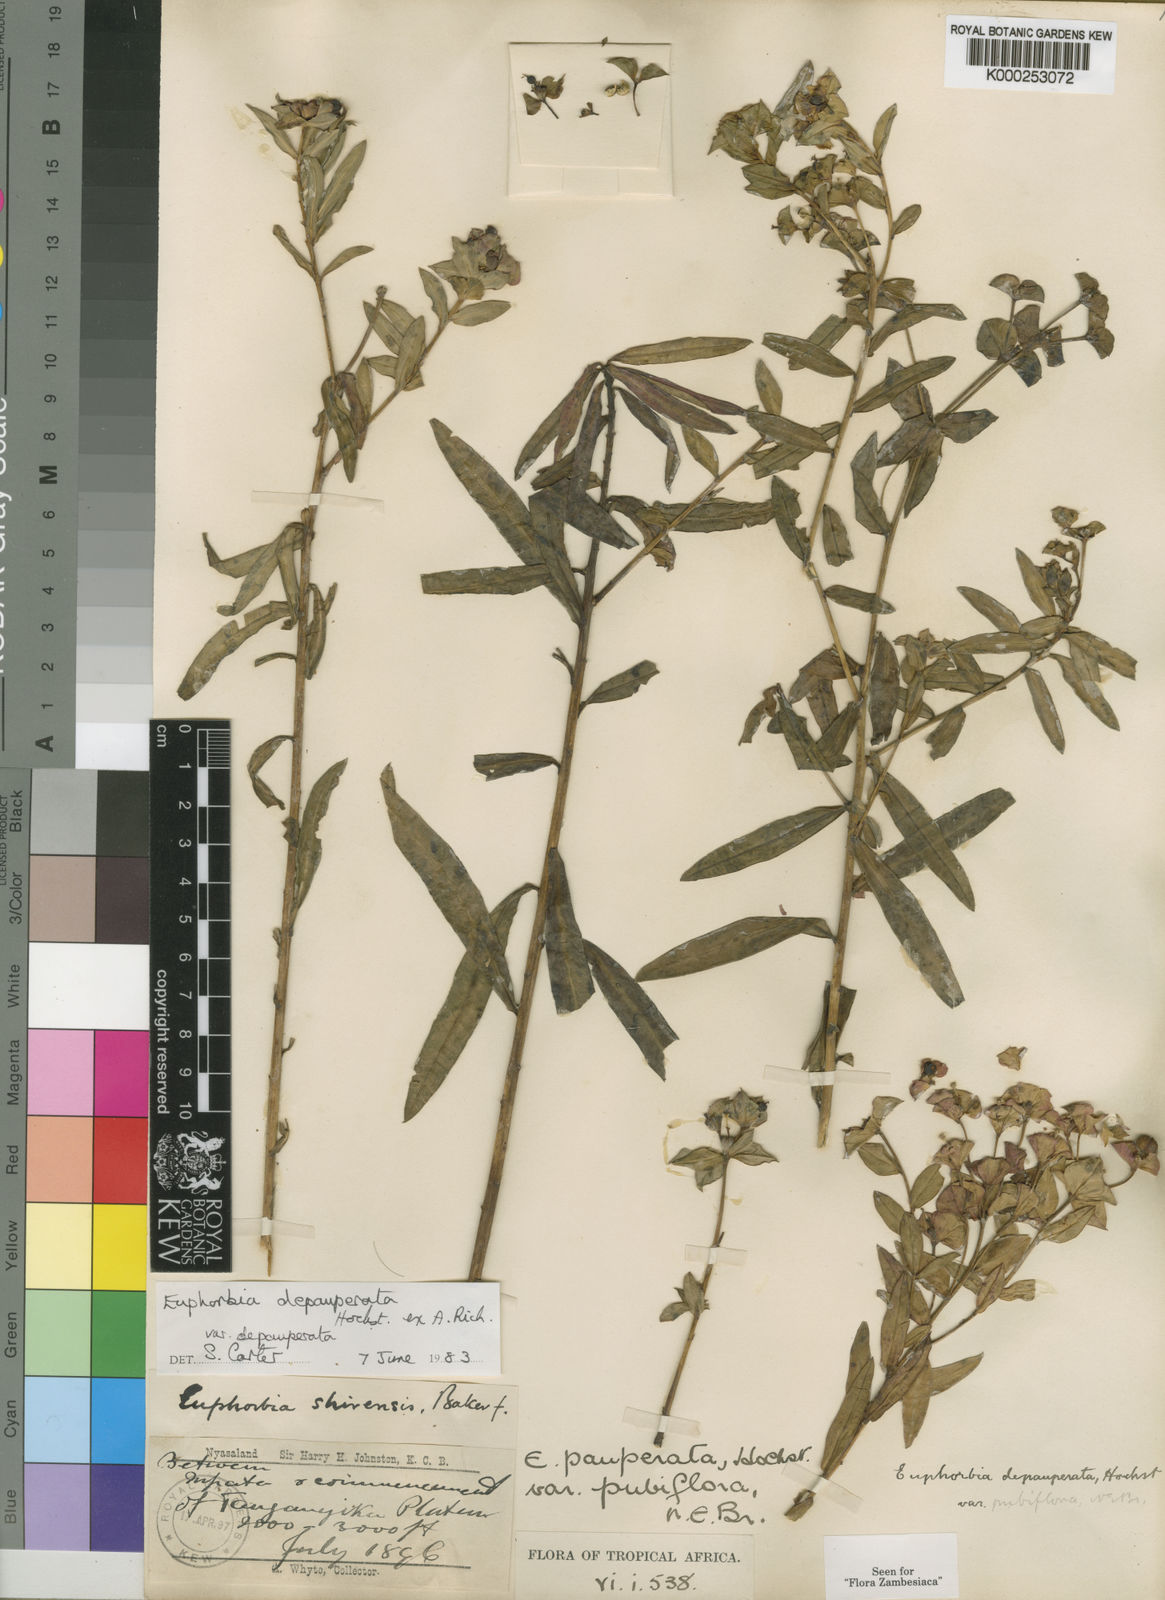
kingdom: Plantae
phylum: Tracheophyta
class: Magnoliopsida
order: Malpighiales
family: Euphorbiaceae
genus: Euphorbia
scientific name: Euphorbia depauperata
